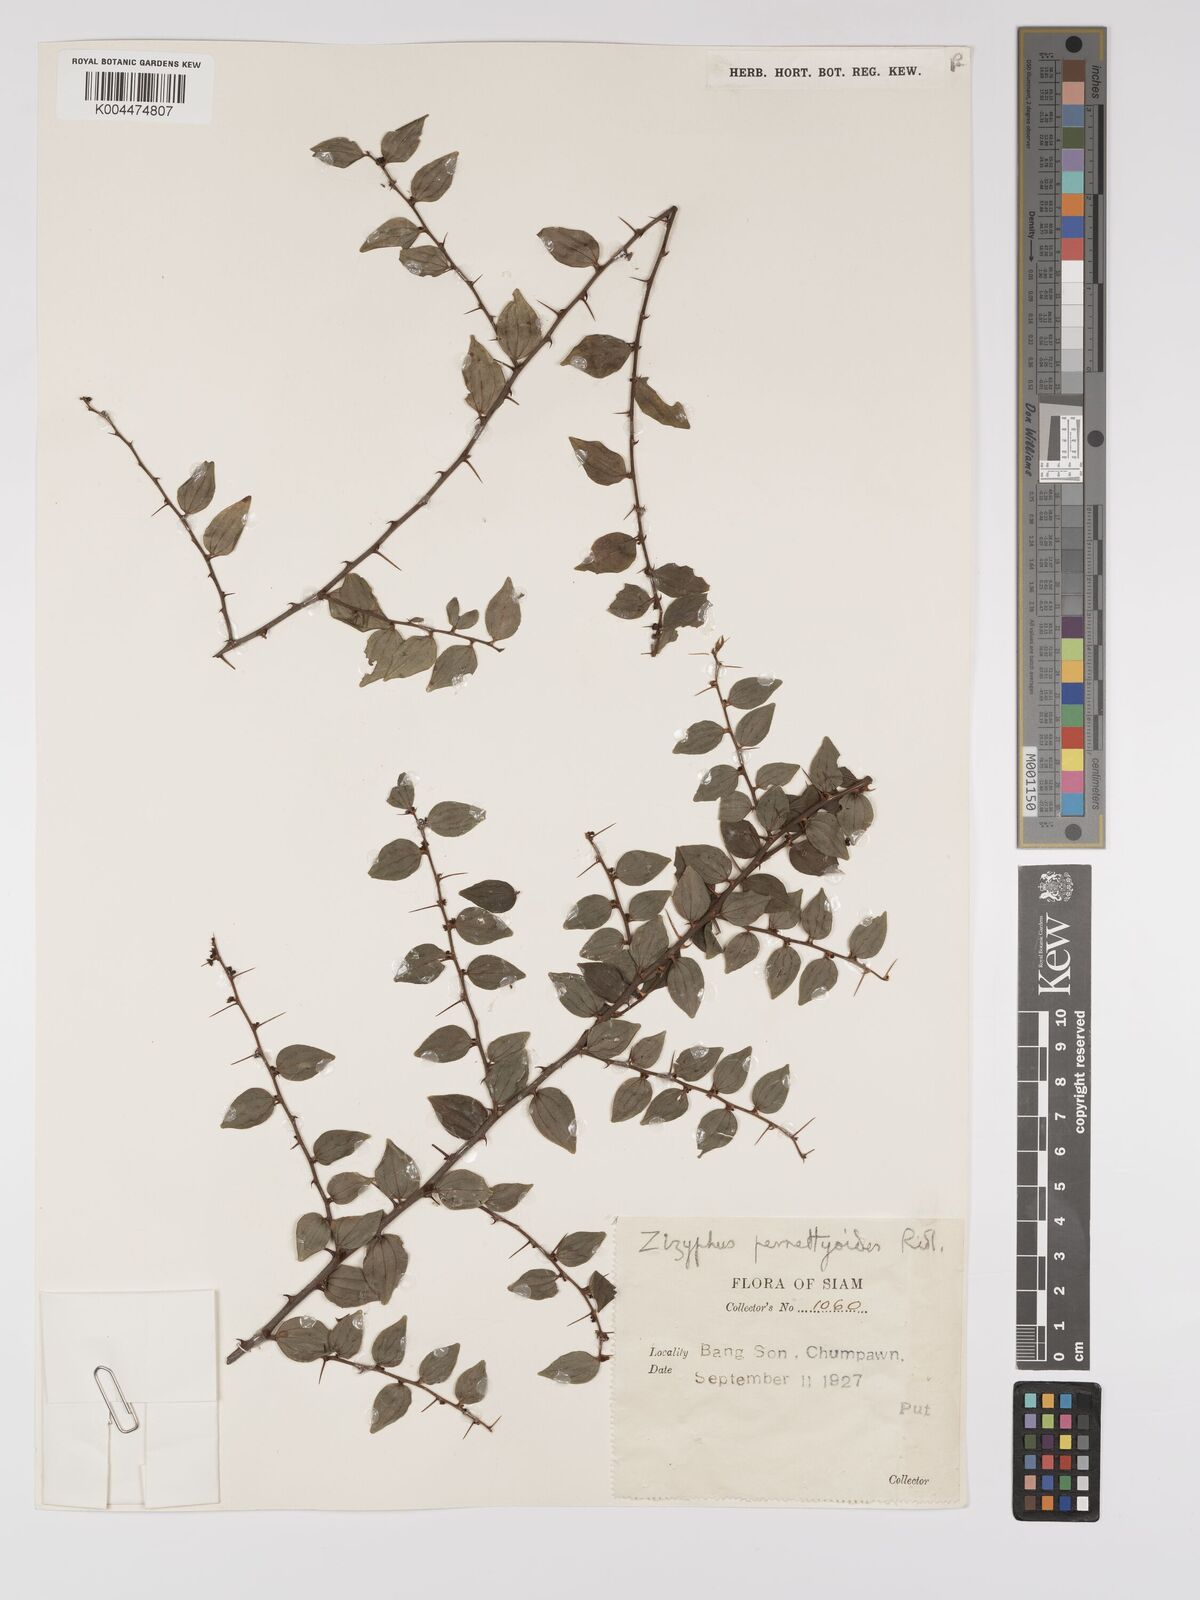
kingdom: Plantae
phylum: Tracheophyta
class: Magnoliopsida
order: Rosales
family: Rhamnaceae
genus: Ziziphus
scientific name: Ziziphus pernettyoides
